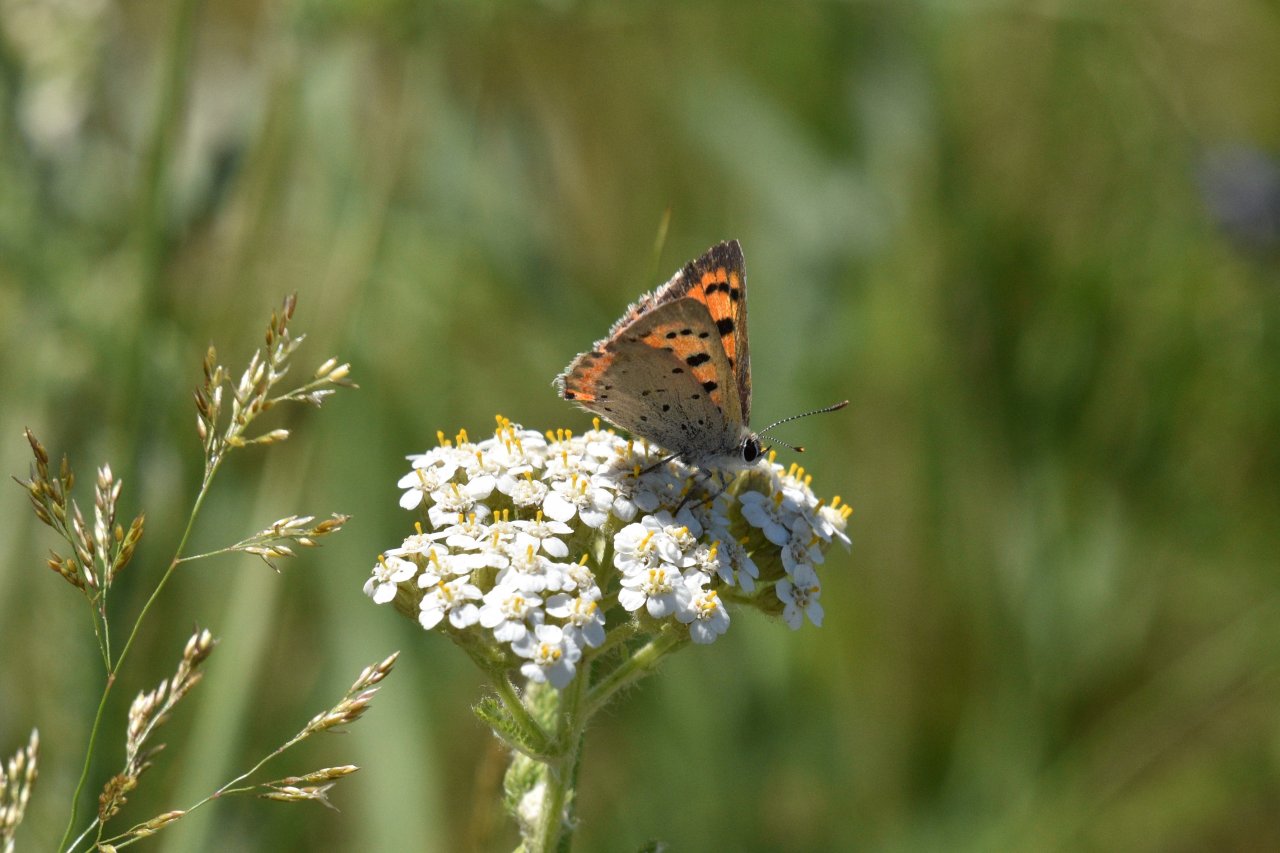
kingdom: Animalia
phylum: Arthropoda
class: Insecta
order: Lepidoptera
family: Lycaenidae
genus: Lycaena
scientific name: Lycaena phlaeas
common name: American Copper
